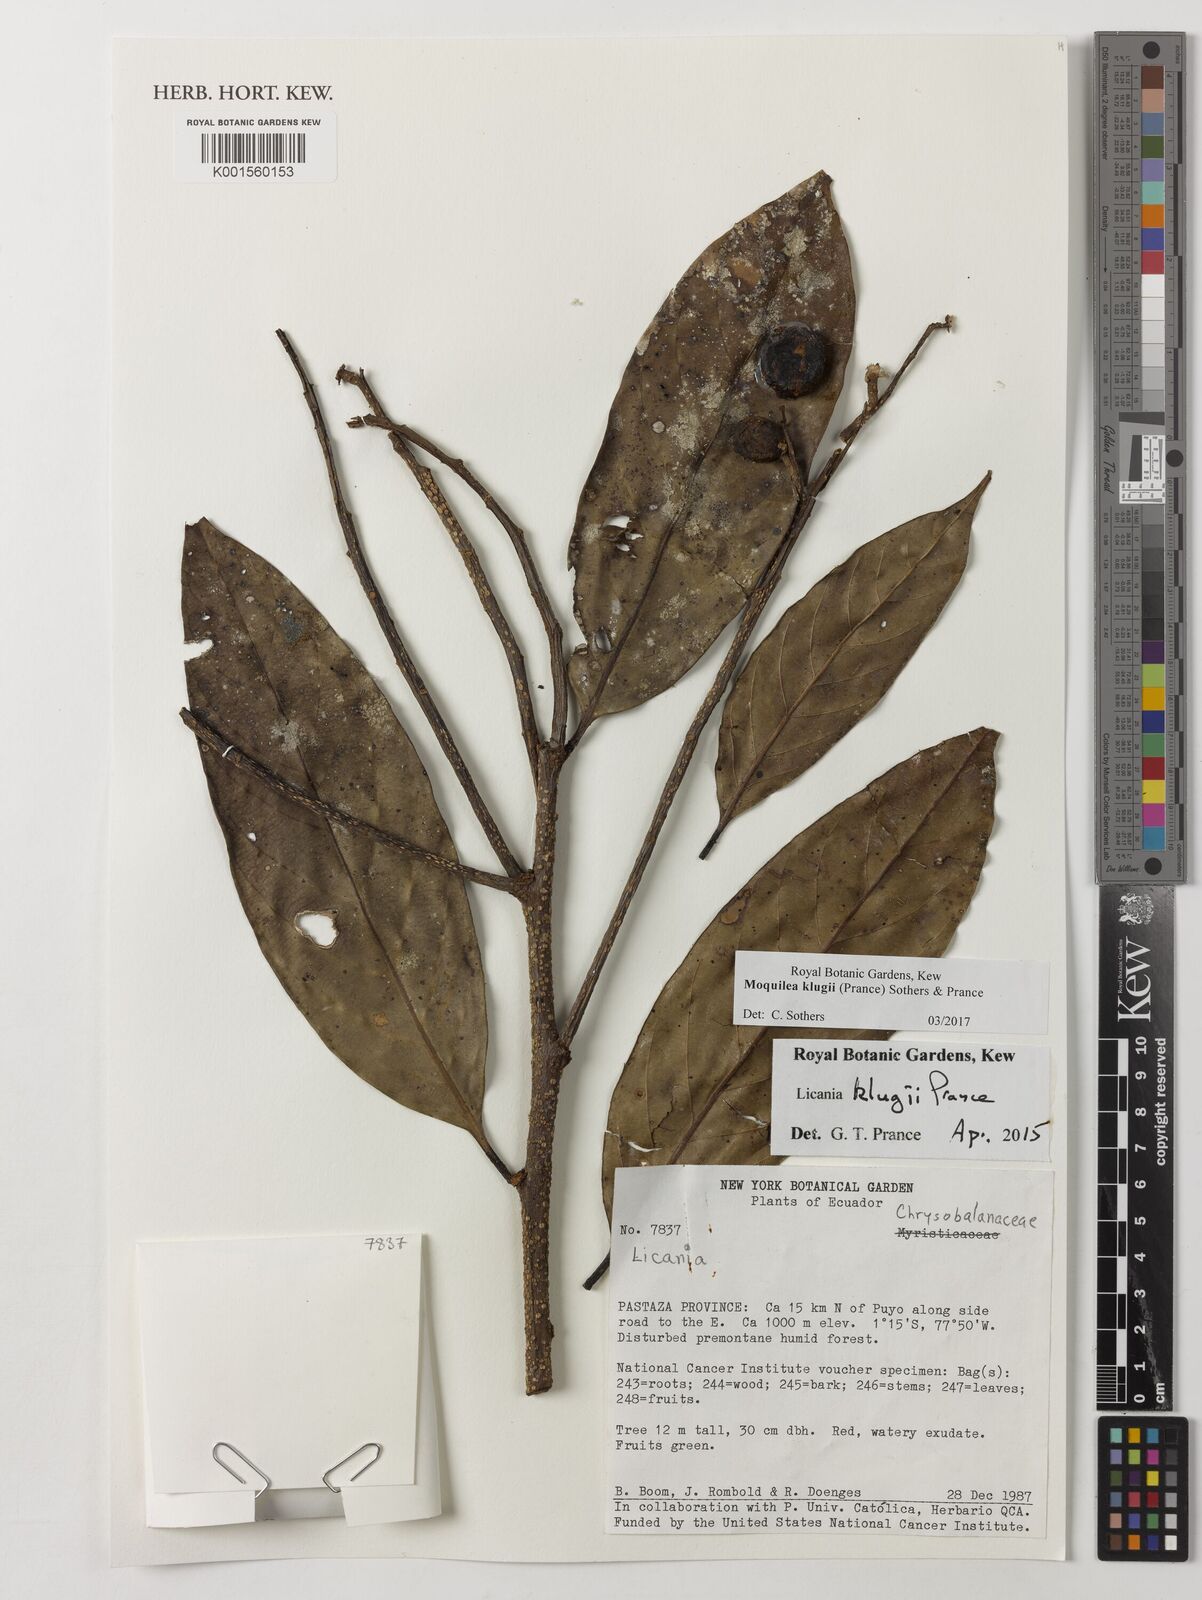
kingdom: Plantae
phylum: Tracheophyta
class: Magnoliopsida
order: Malpighiales
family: Chrysobalanaceae
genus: Moquilea
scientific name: Moquilea klugii
